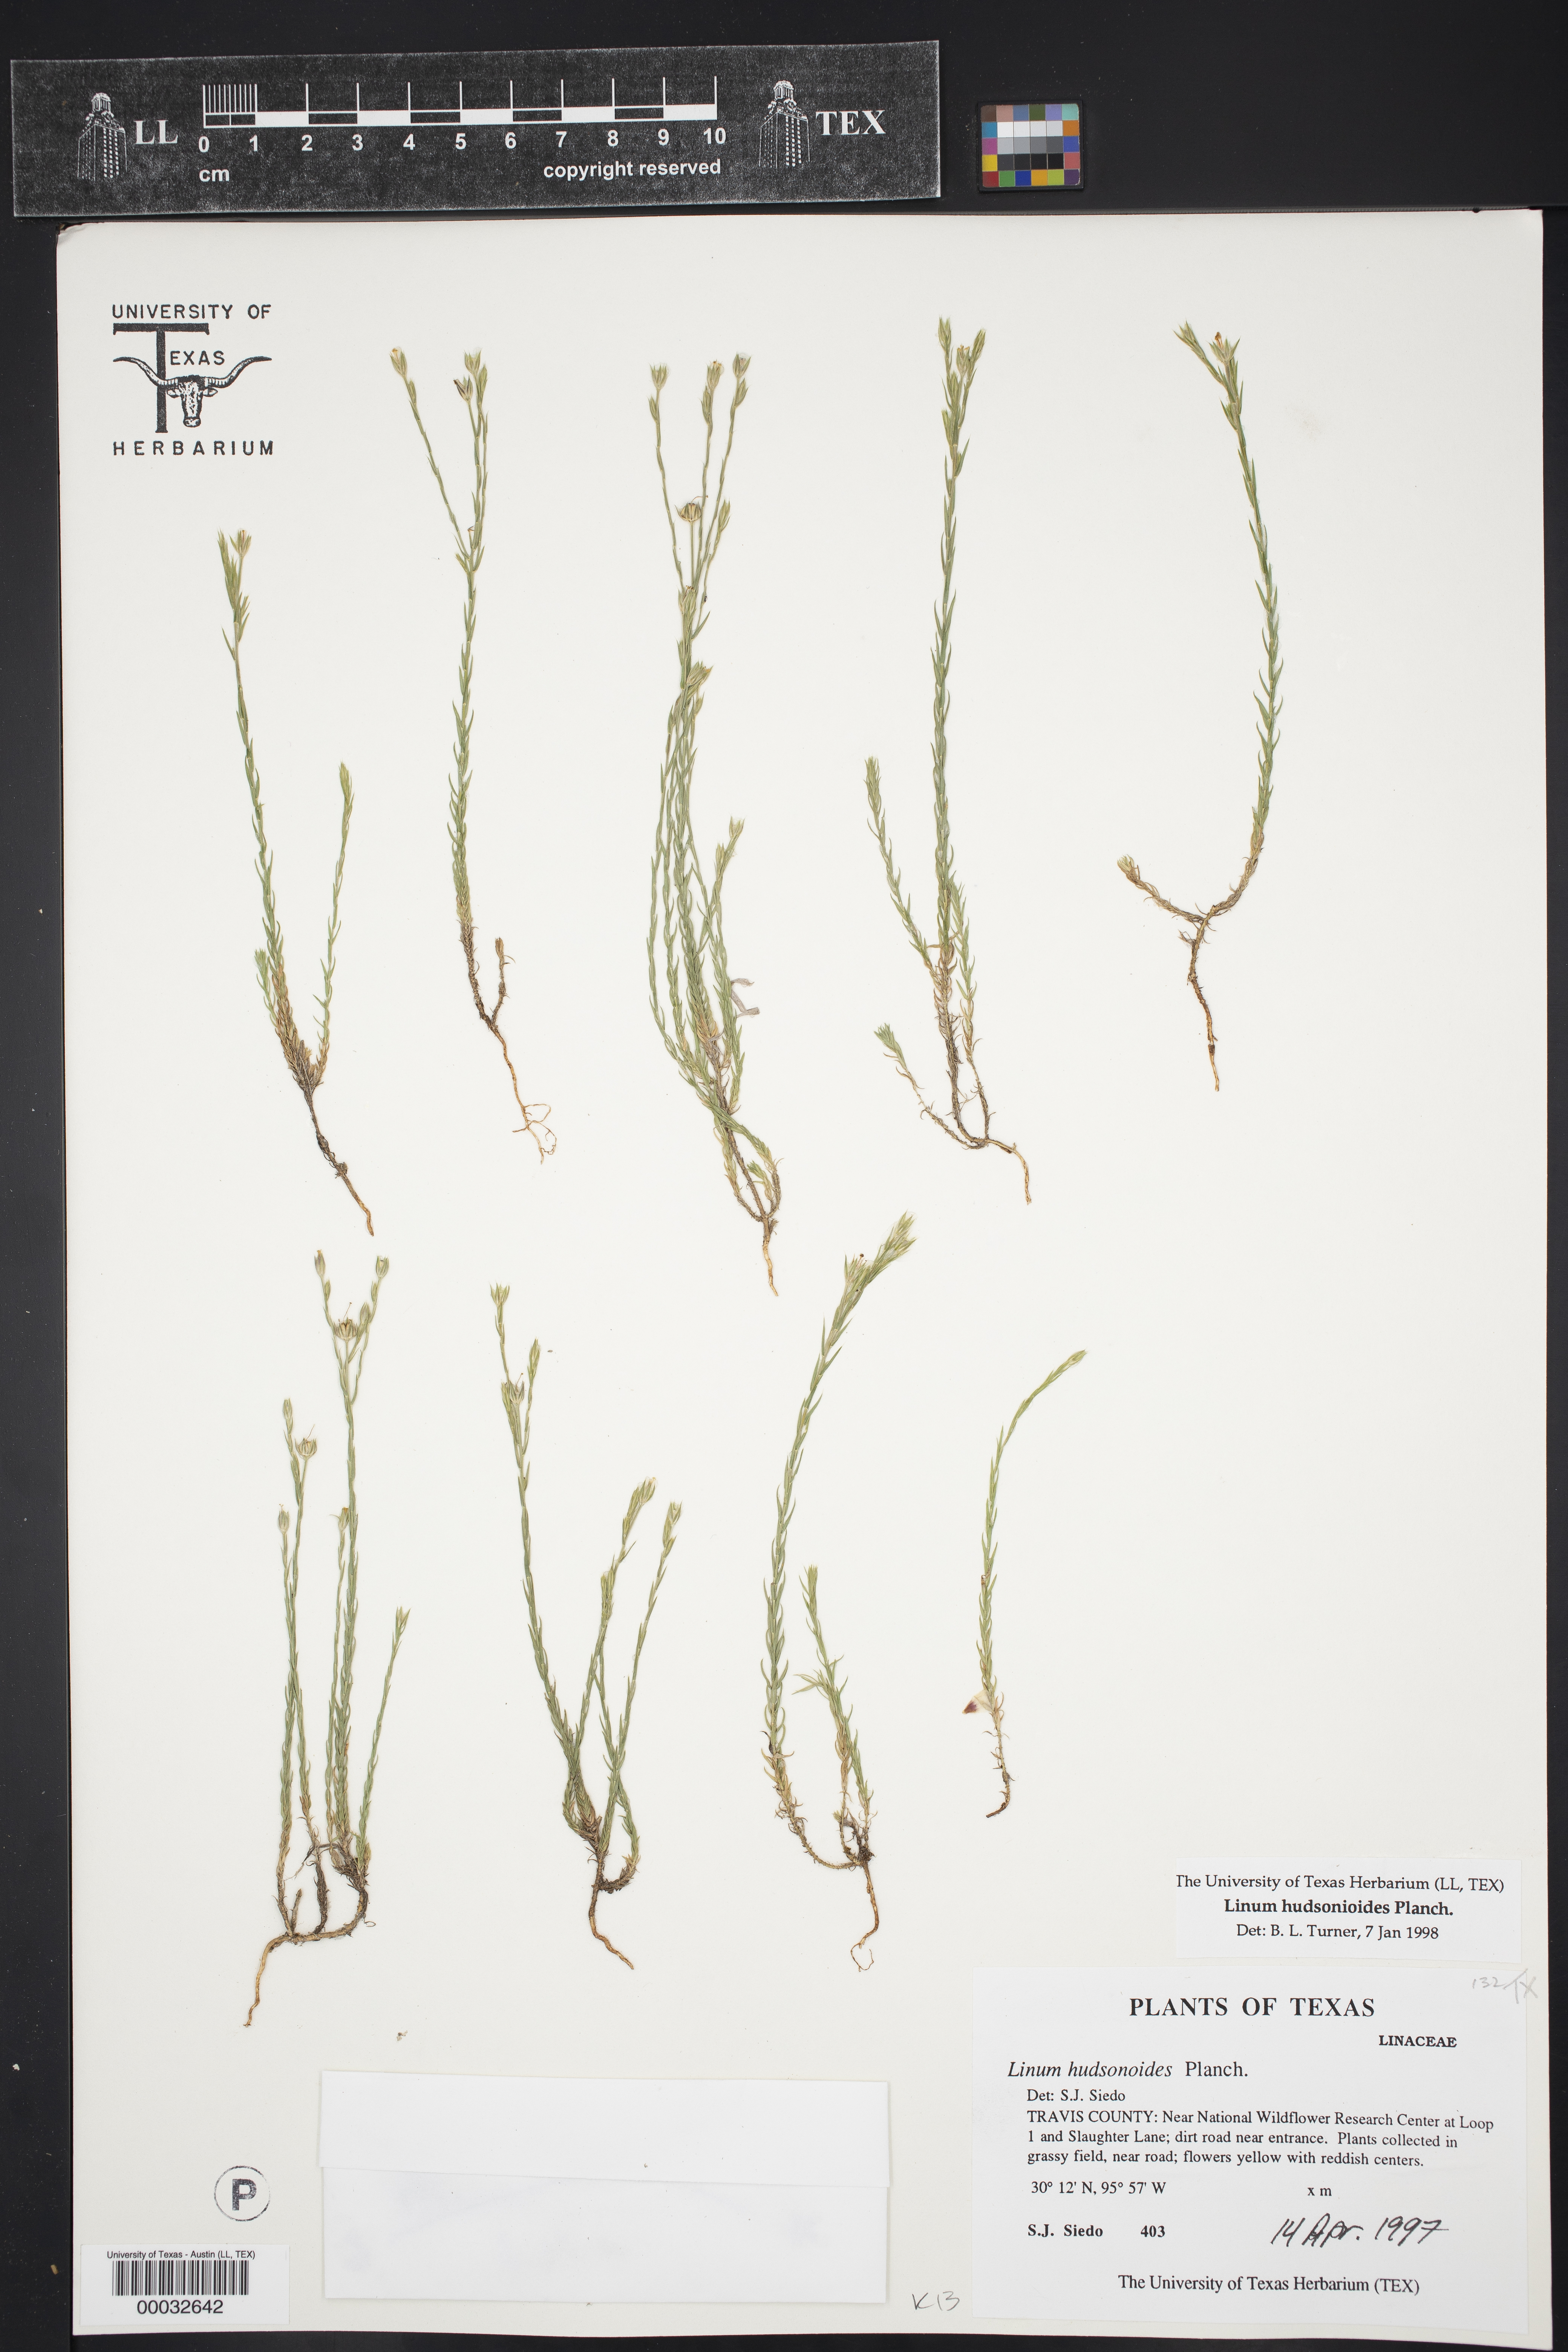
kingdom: Plantae
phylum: Tracheophyta
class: Magnoliopsida
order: Malpighiales
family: Linaceae
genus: Linum
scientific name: Linum hudsonioides
